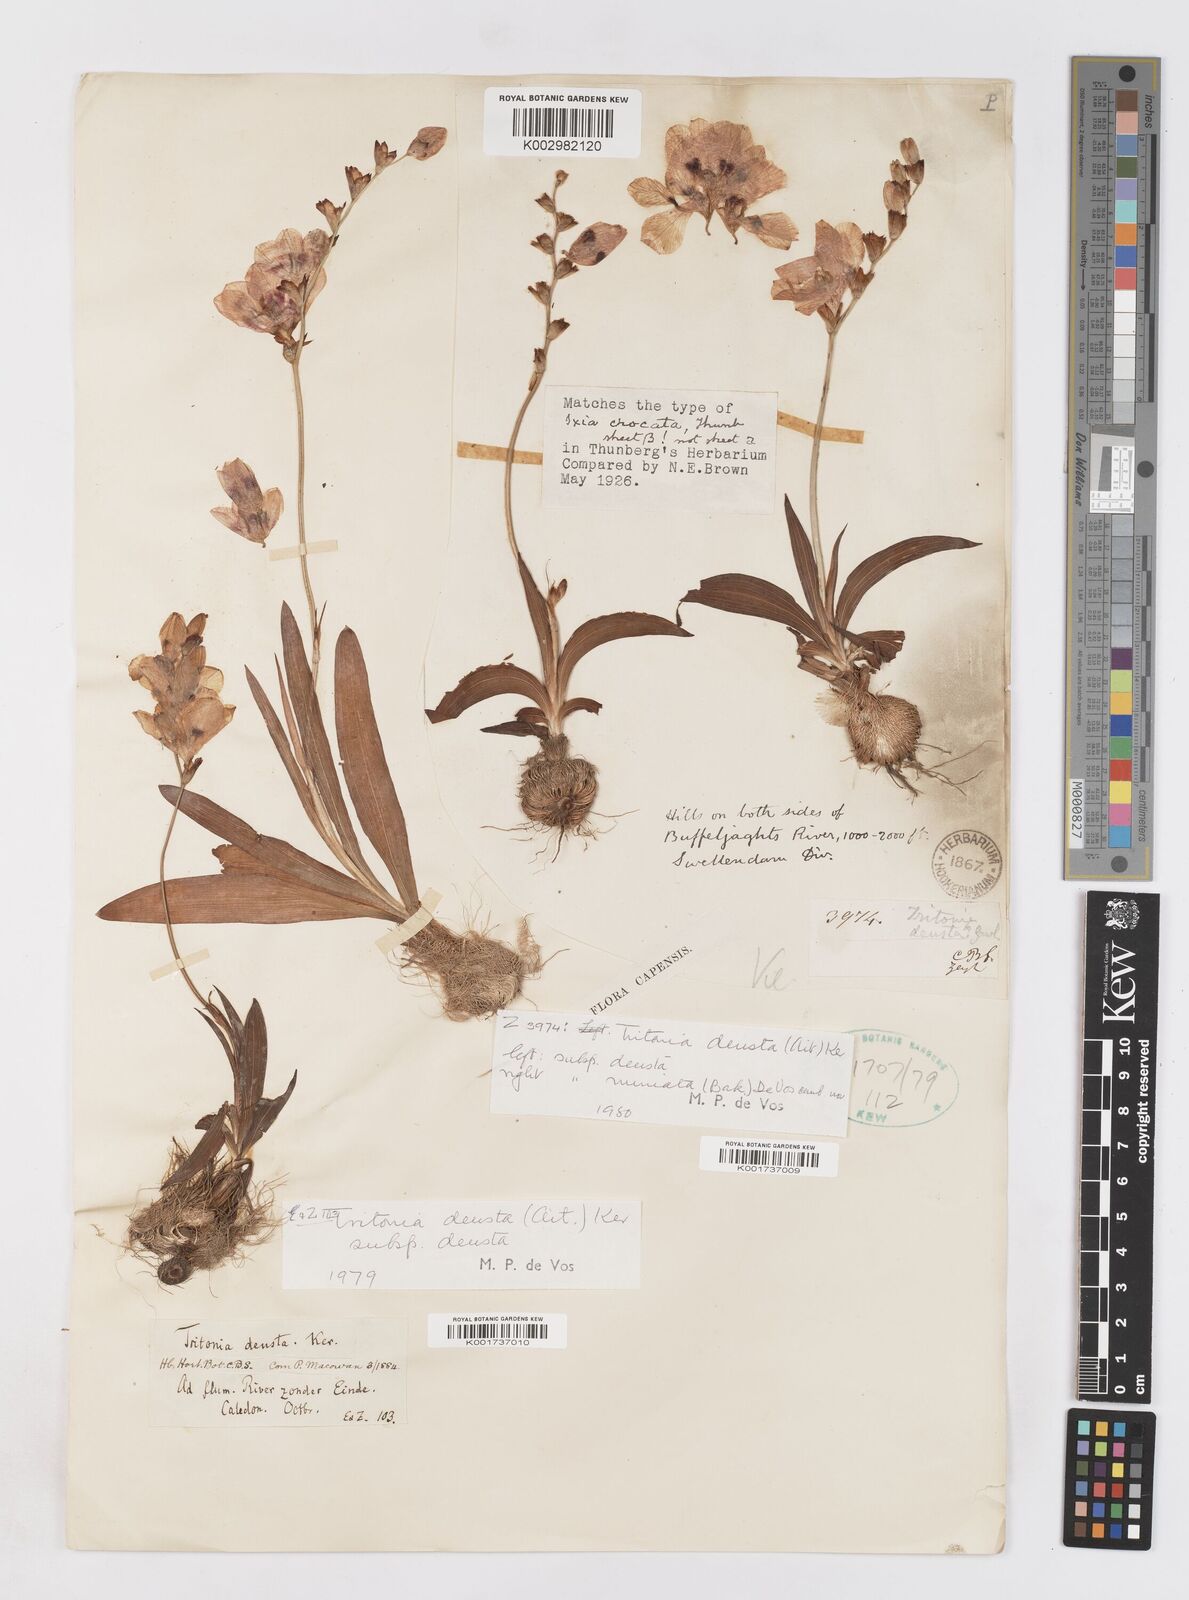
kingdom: Plantae
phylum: Tracheophyta
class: Liliopsida
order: Asparagales
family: Iridaceae
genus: Tritonia
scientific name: Tritonia deusta
